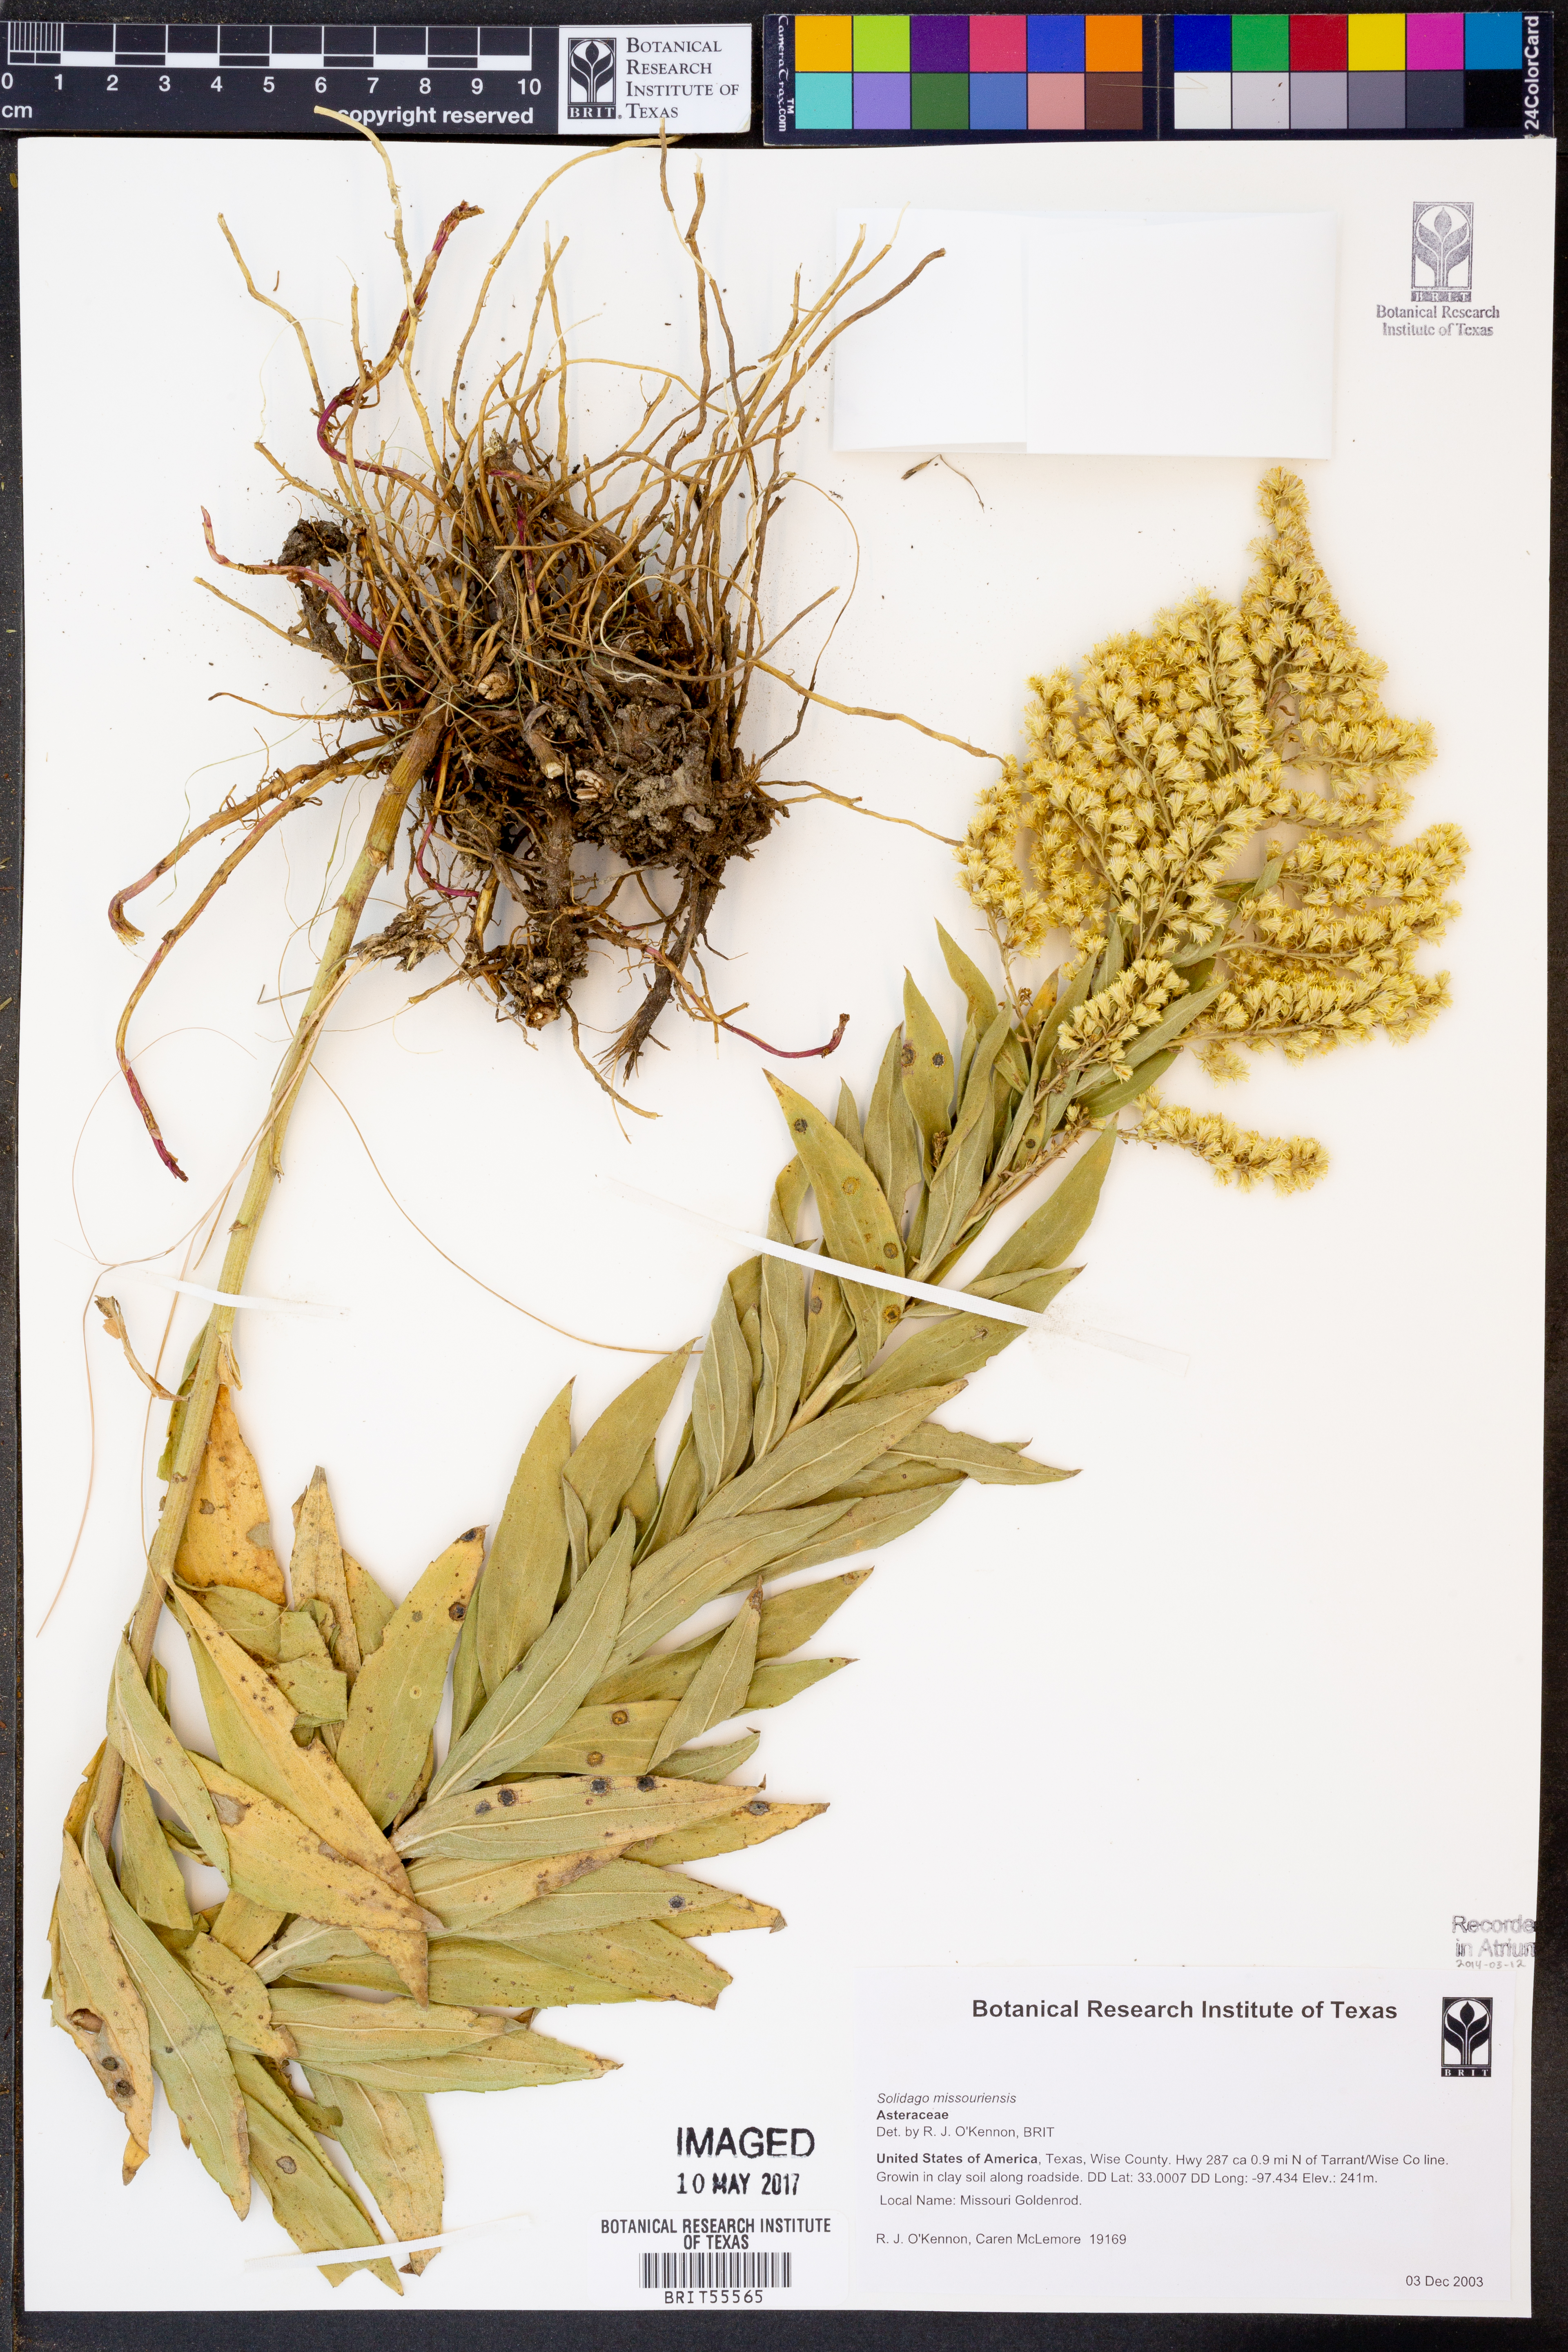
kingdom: Plantae
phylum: Tracheophyta
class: Magnoliopsida
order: Asterales
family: Asteraceae
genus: Solidago
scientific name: Solidago missouriensis
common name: Prairie goldenrod
